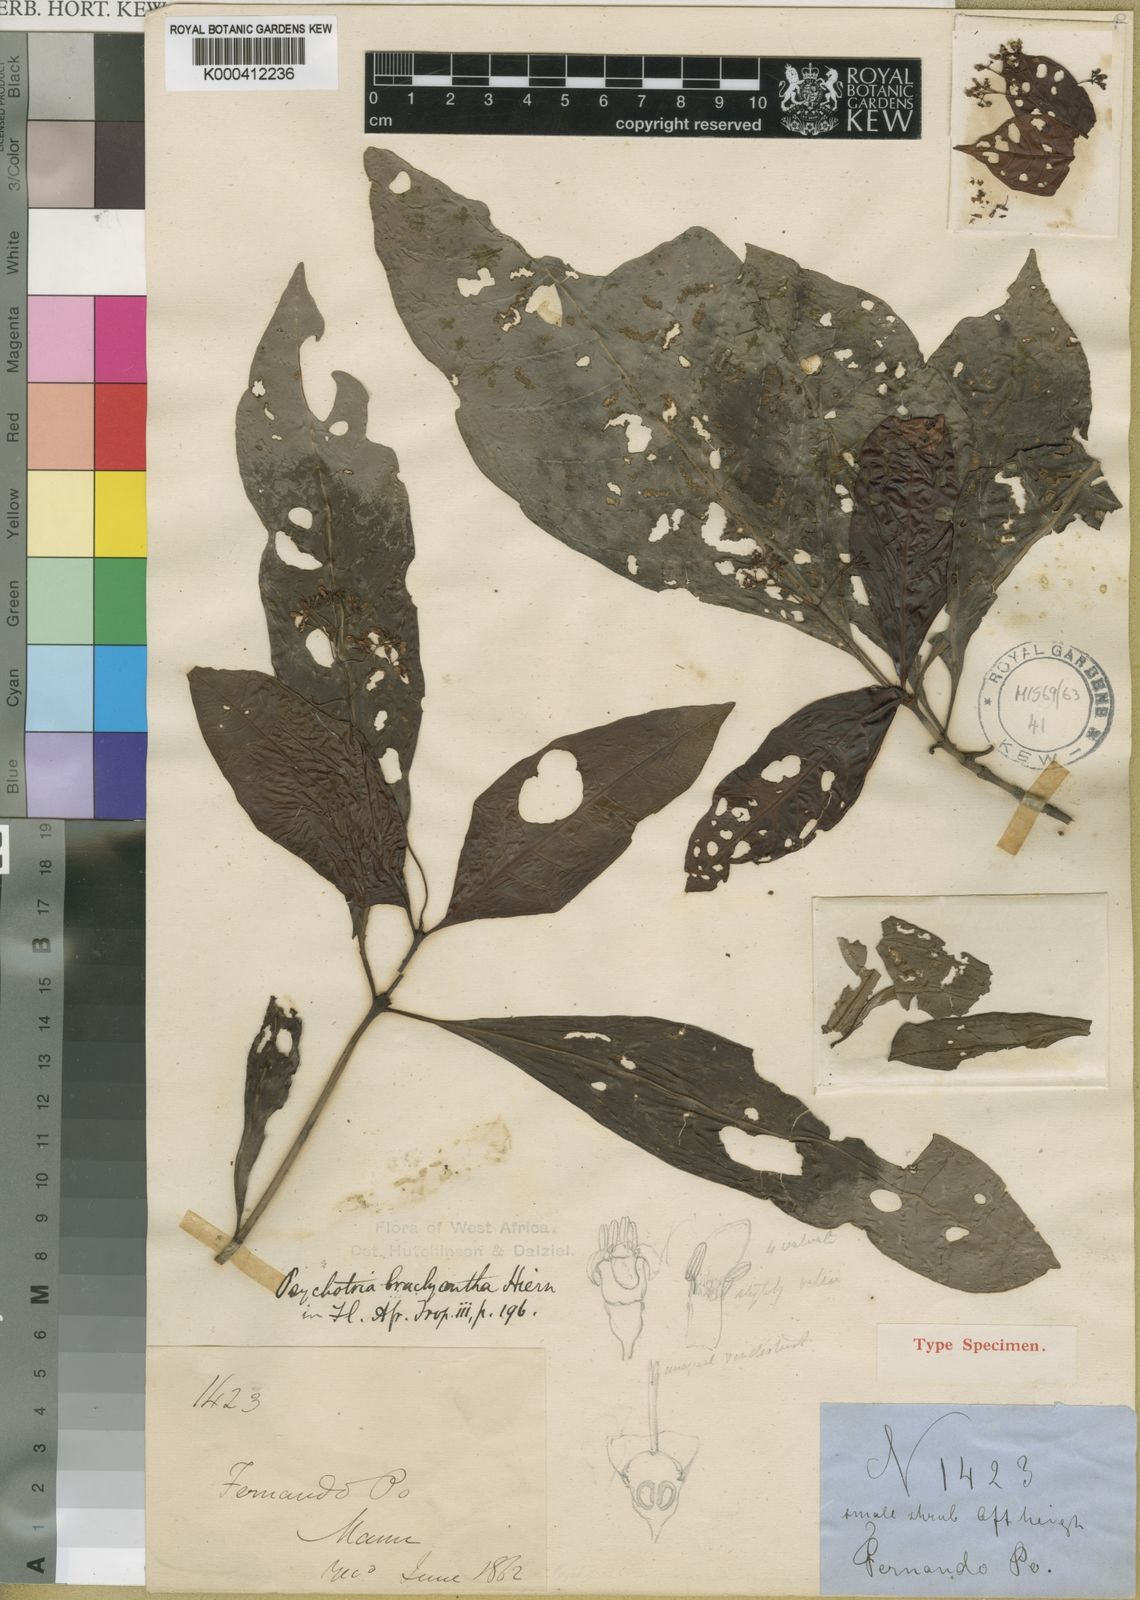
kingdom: Plantae
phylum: Tracheophyta
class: Magnoliopsida
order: Gentianales
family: Rubiaceae
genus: Psychotria
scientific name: Psychotria brachyantha
